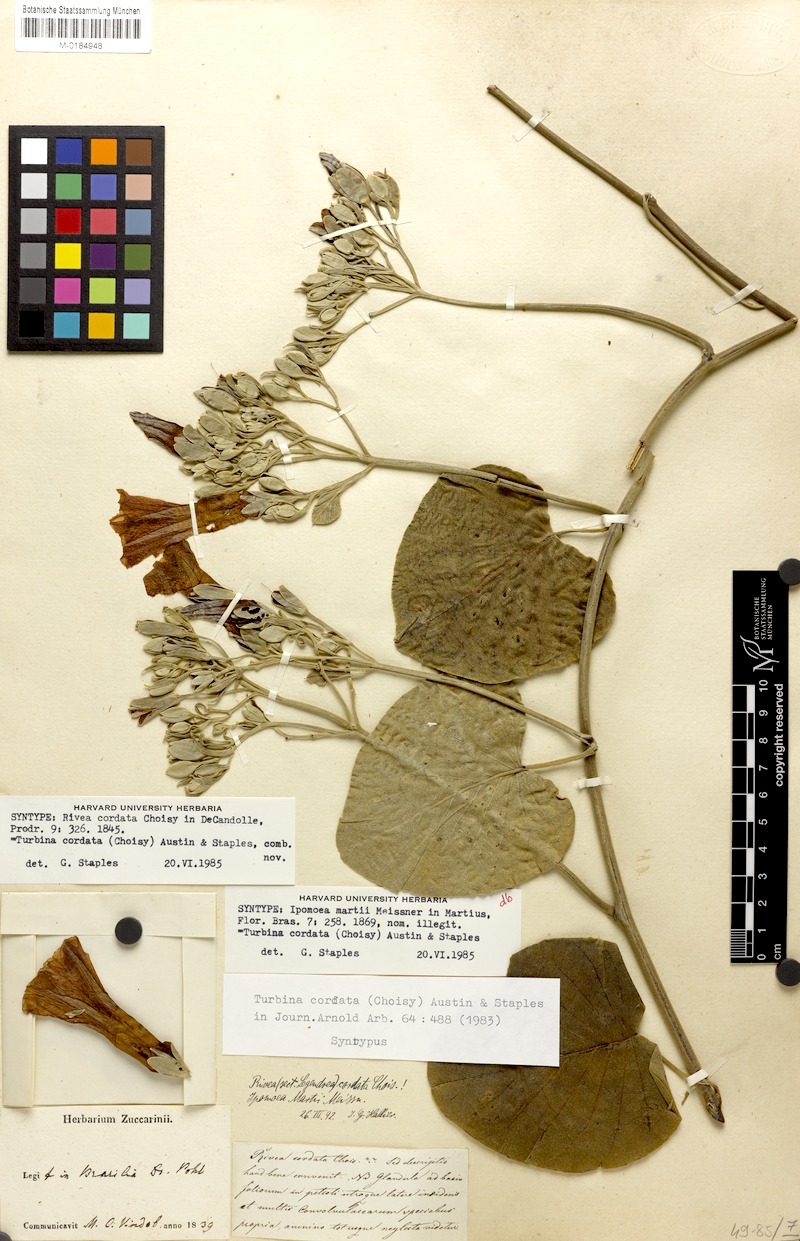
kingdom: Plantae
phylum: Tracheophyta
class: Magnoliopsida
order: Solanales
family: Convolvulaceae
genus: Ipomoea
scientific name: Ipomoea sericosepala
